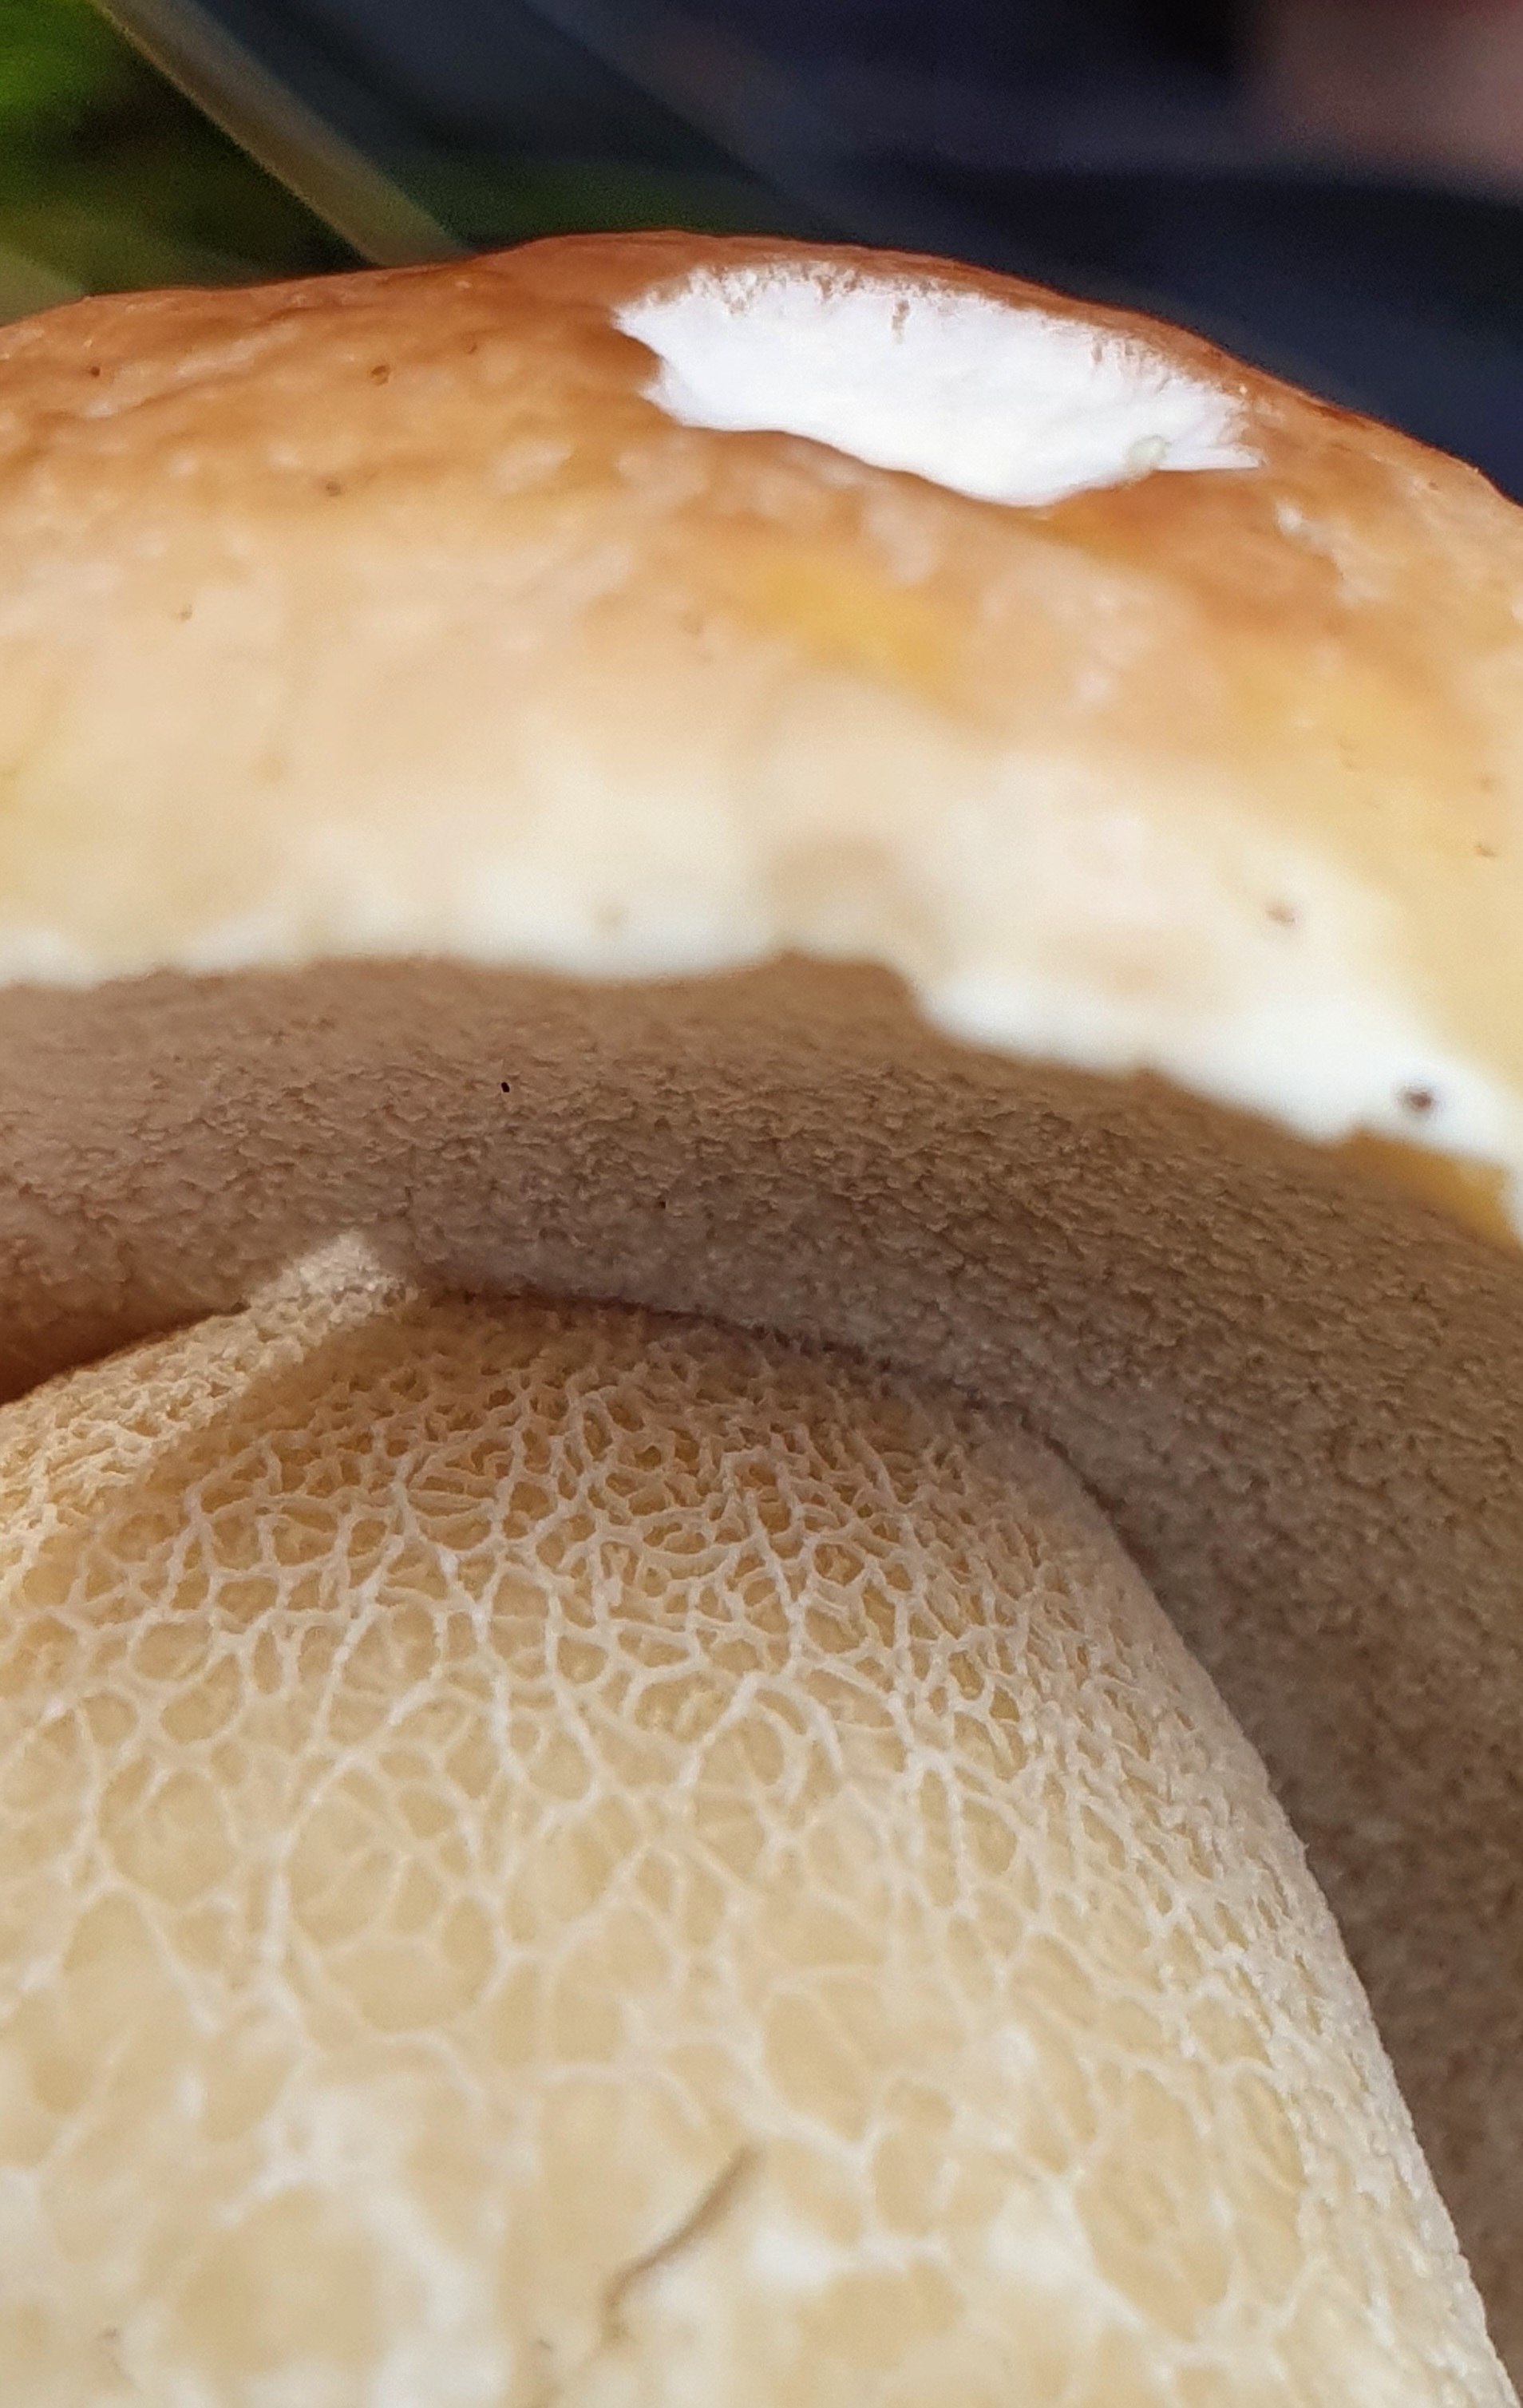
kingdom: Fungi
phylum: Basidiomycota
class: Agaricomycetes
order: Boletales
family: Boletaceae
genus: Boletus
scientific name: Boletus edulis
